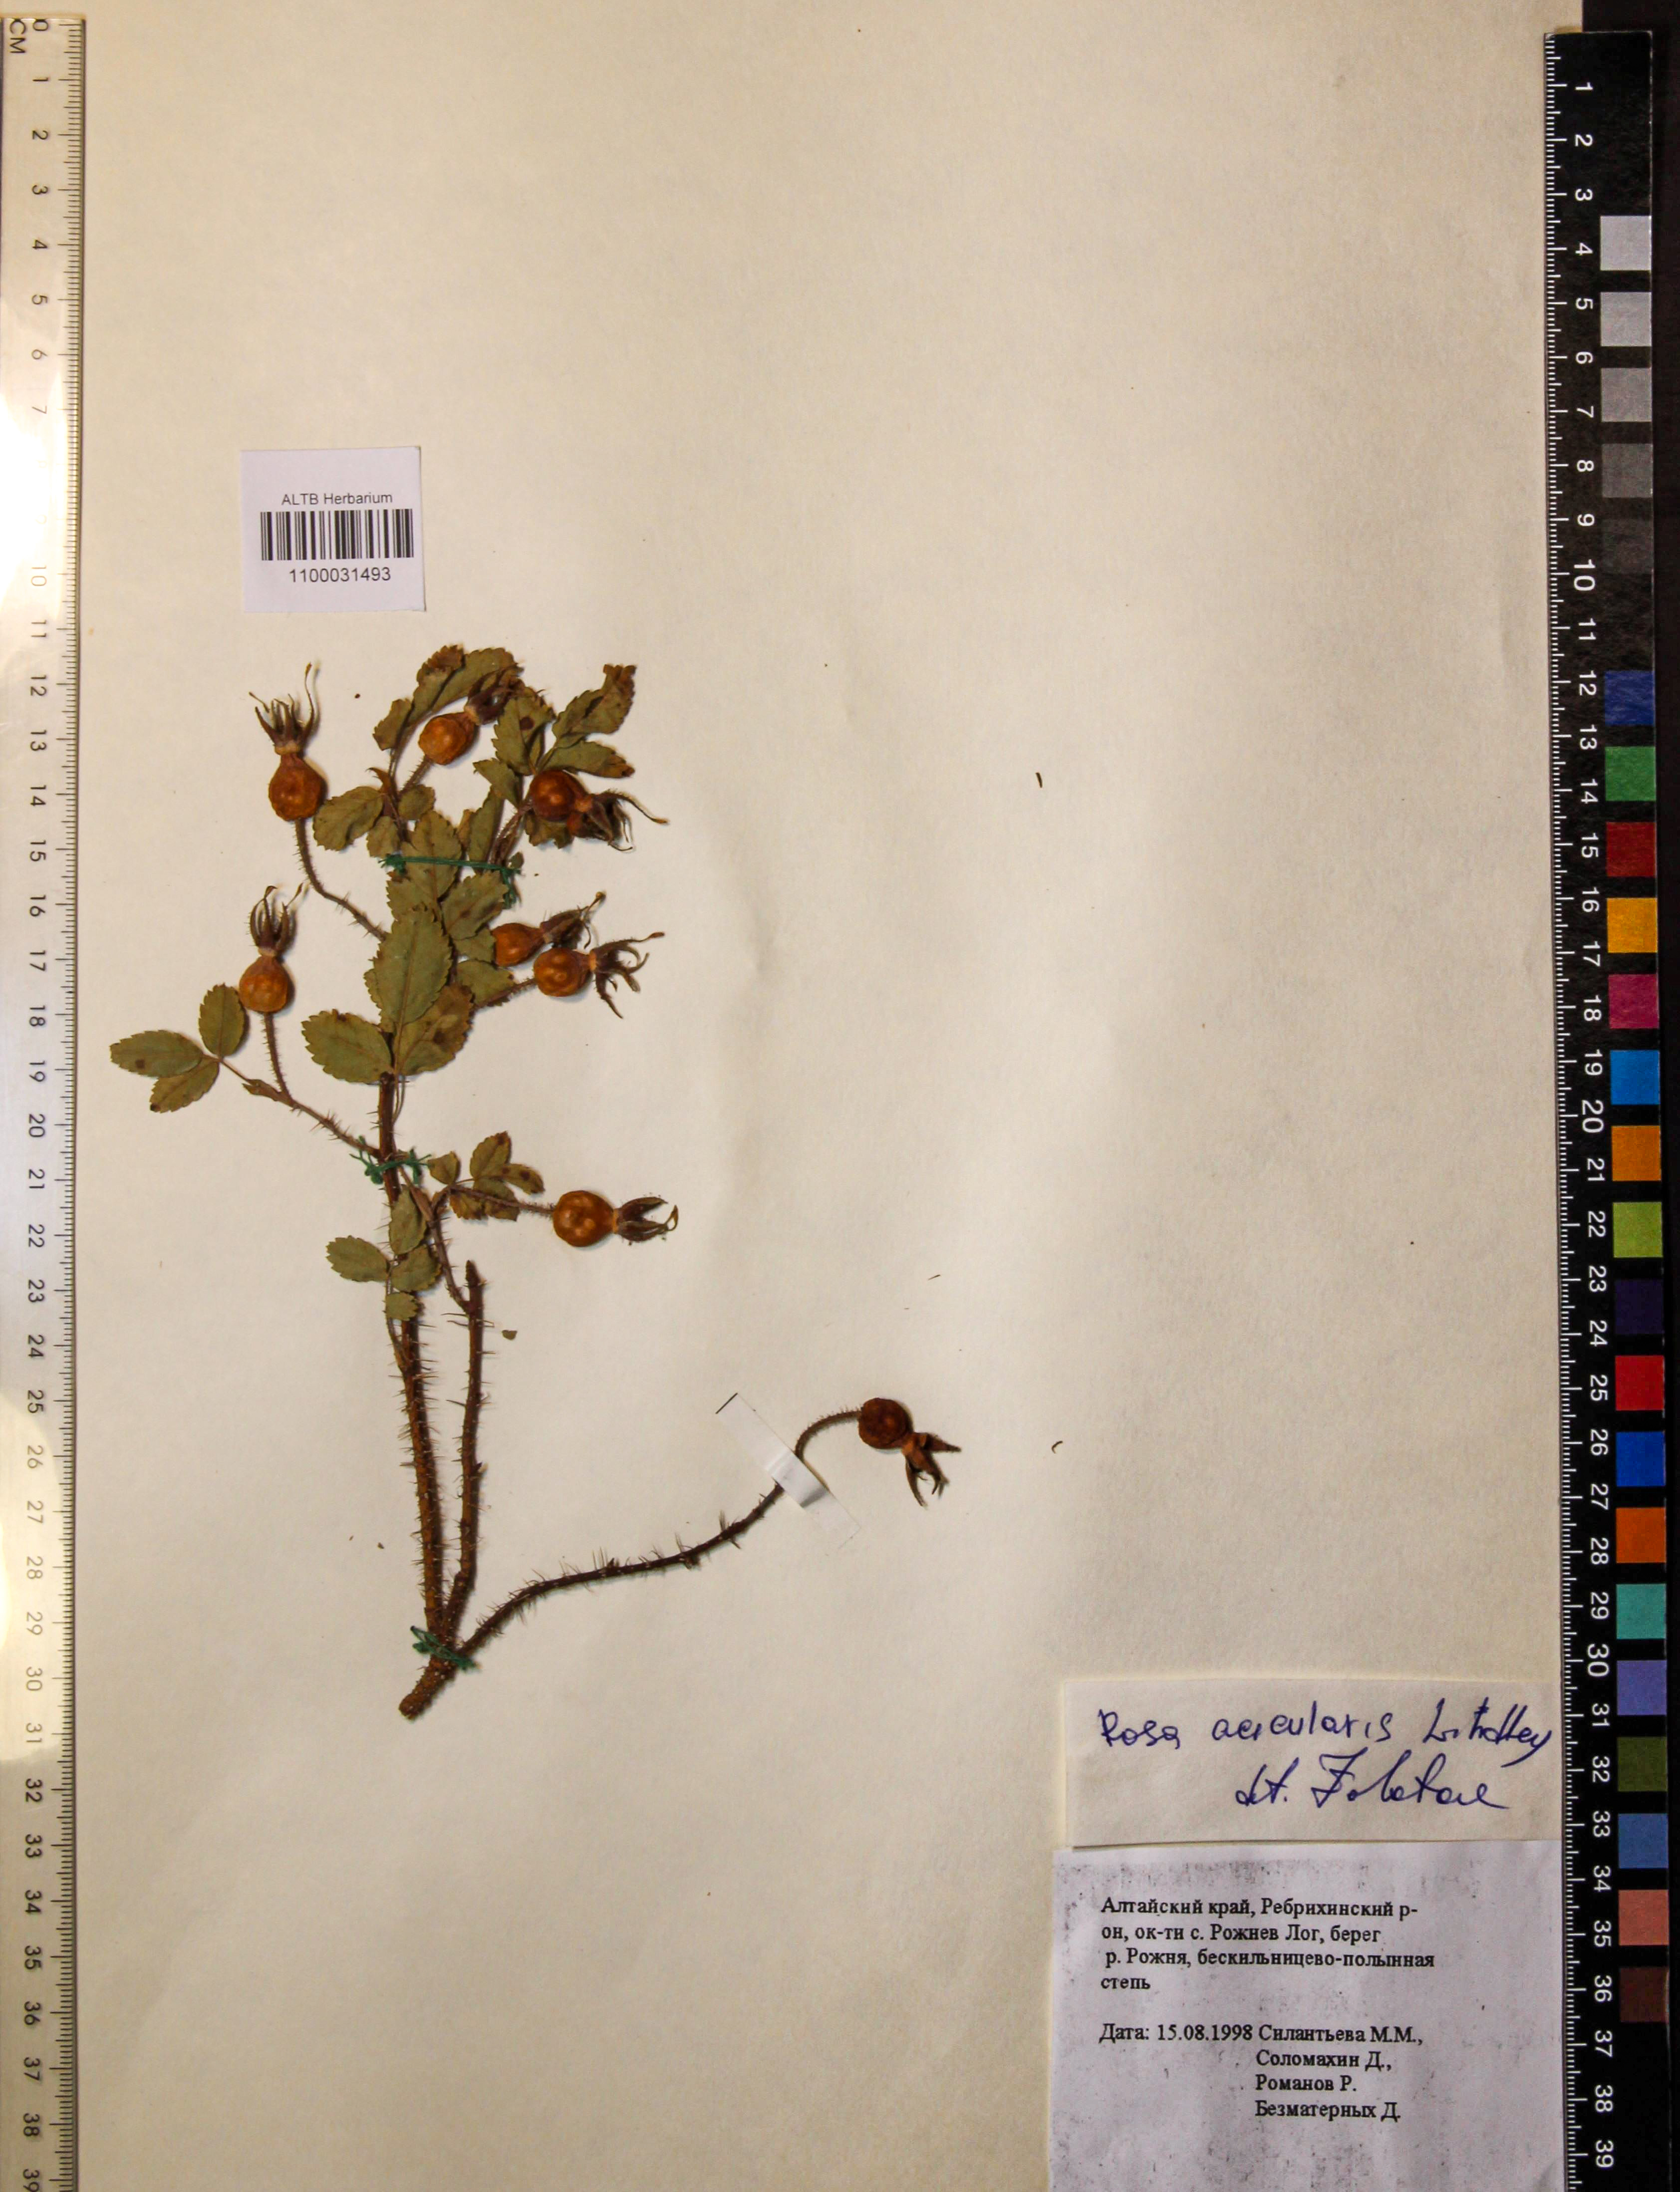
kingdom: Plantae
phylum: Tracheophyta
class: Magnoliopsida
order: Rosales
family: Rosaceae
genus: Rosa
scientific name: Rosa acicularis
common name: Prickly rose
